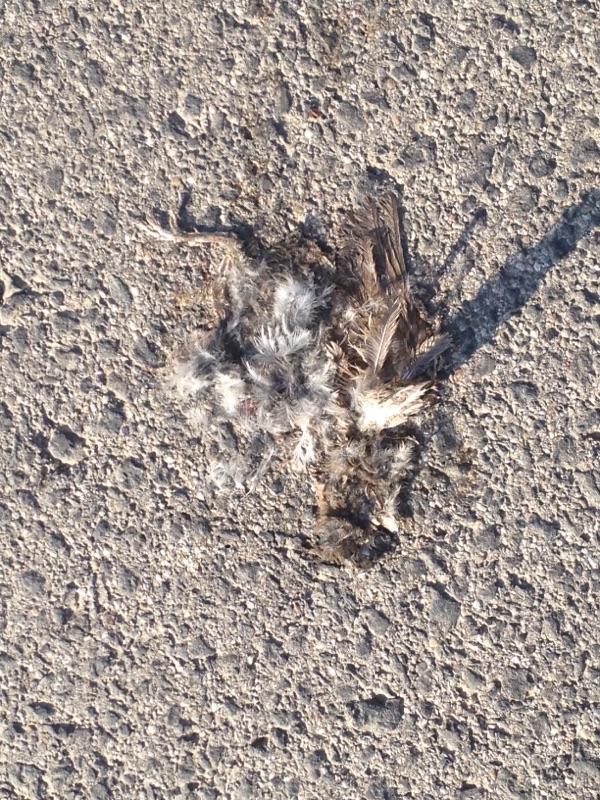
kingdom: Animalia
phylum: Chordata
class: Aves
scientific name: Aves
